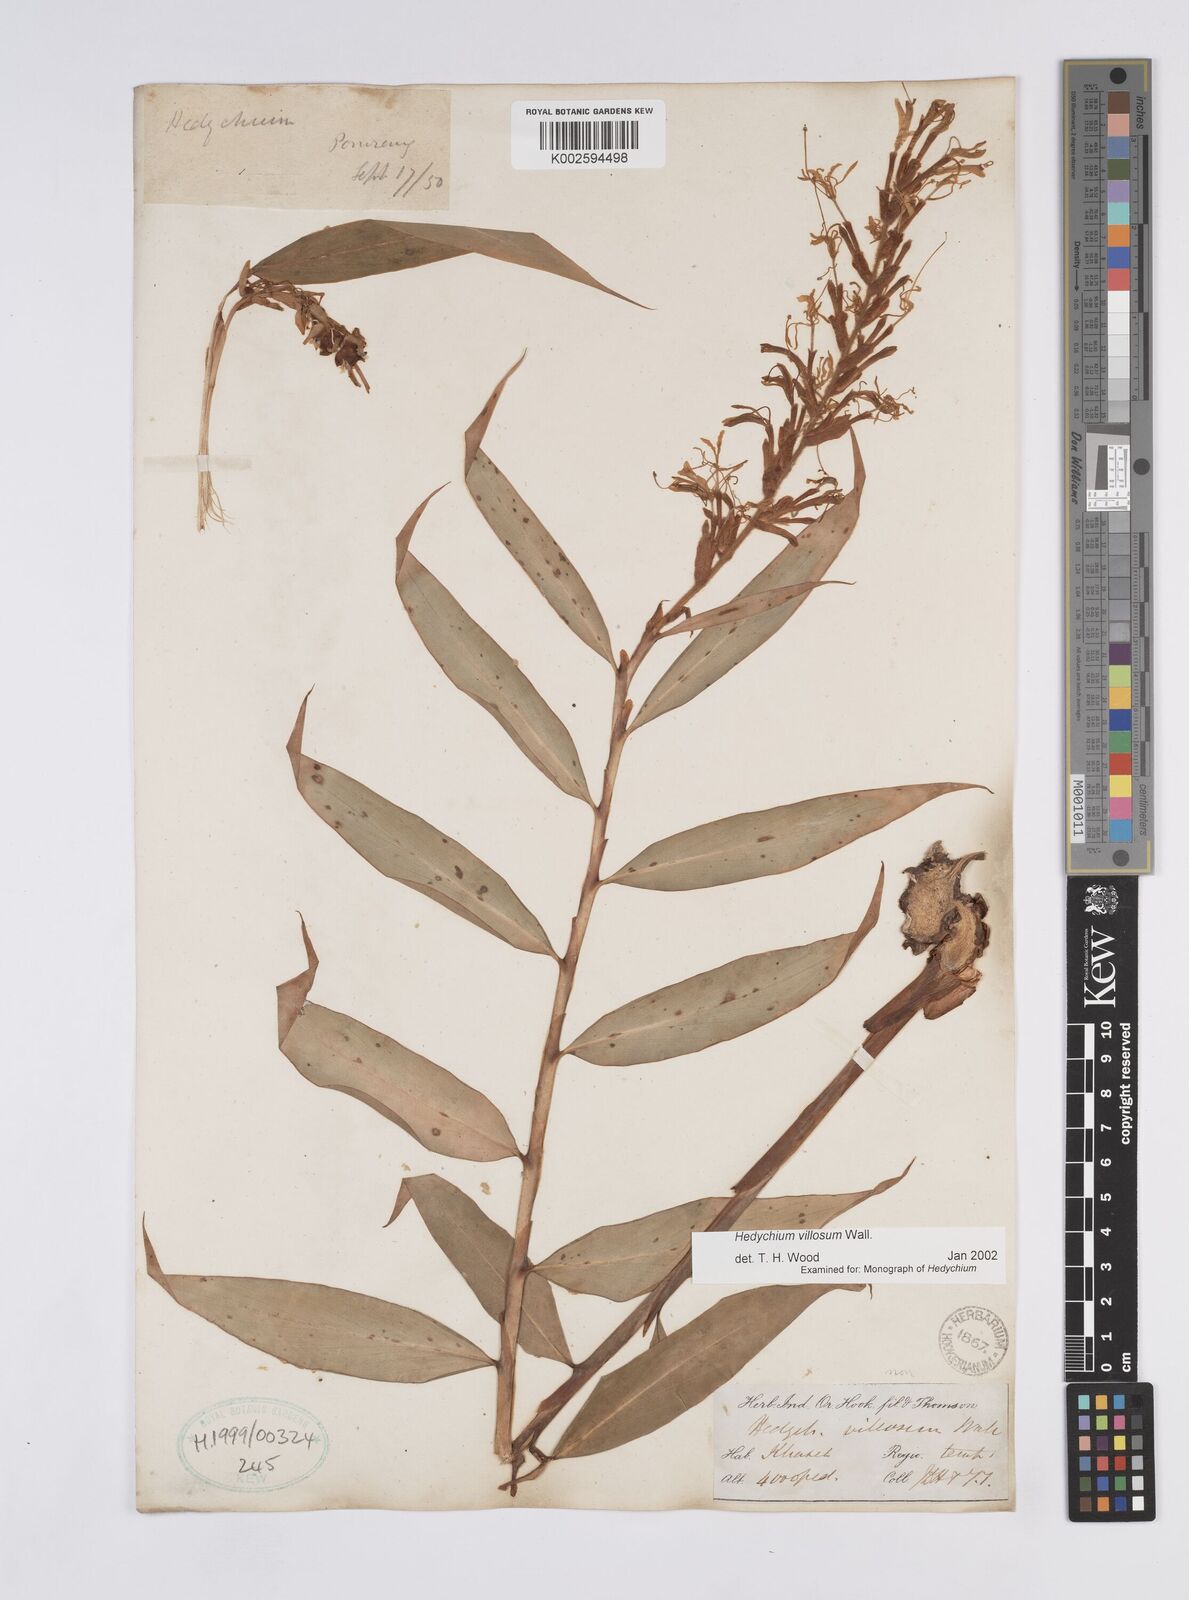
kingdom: Plantae
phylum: Tracheophyta
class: Liliopsida
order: Zingiberales
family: Zingiberaceae
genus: Hedychium
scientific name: Hedychium villosum
